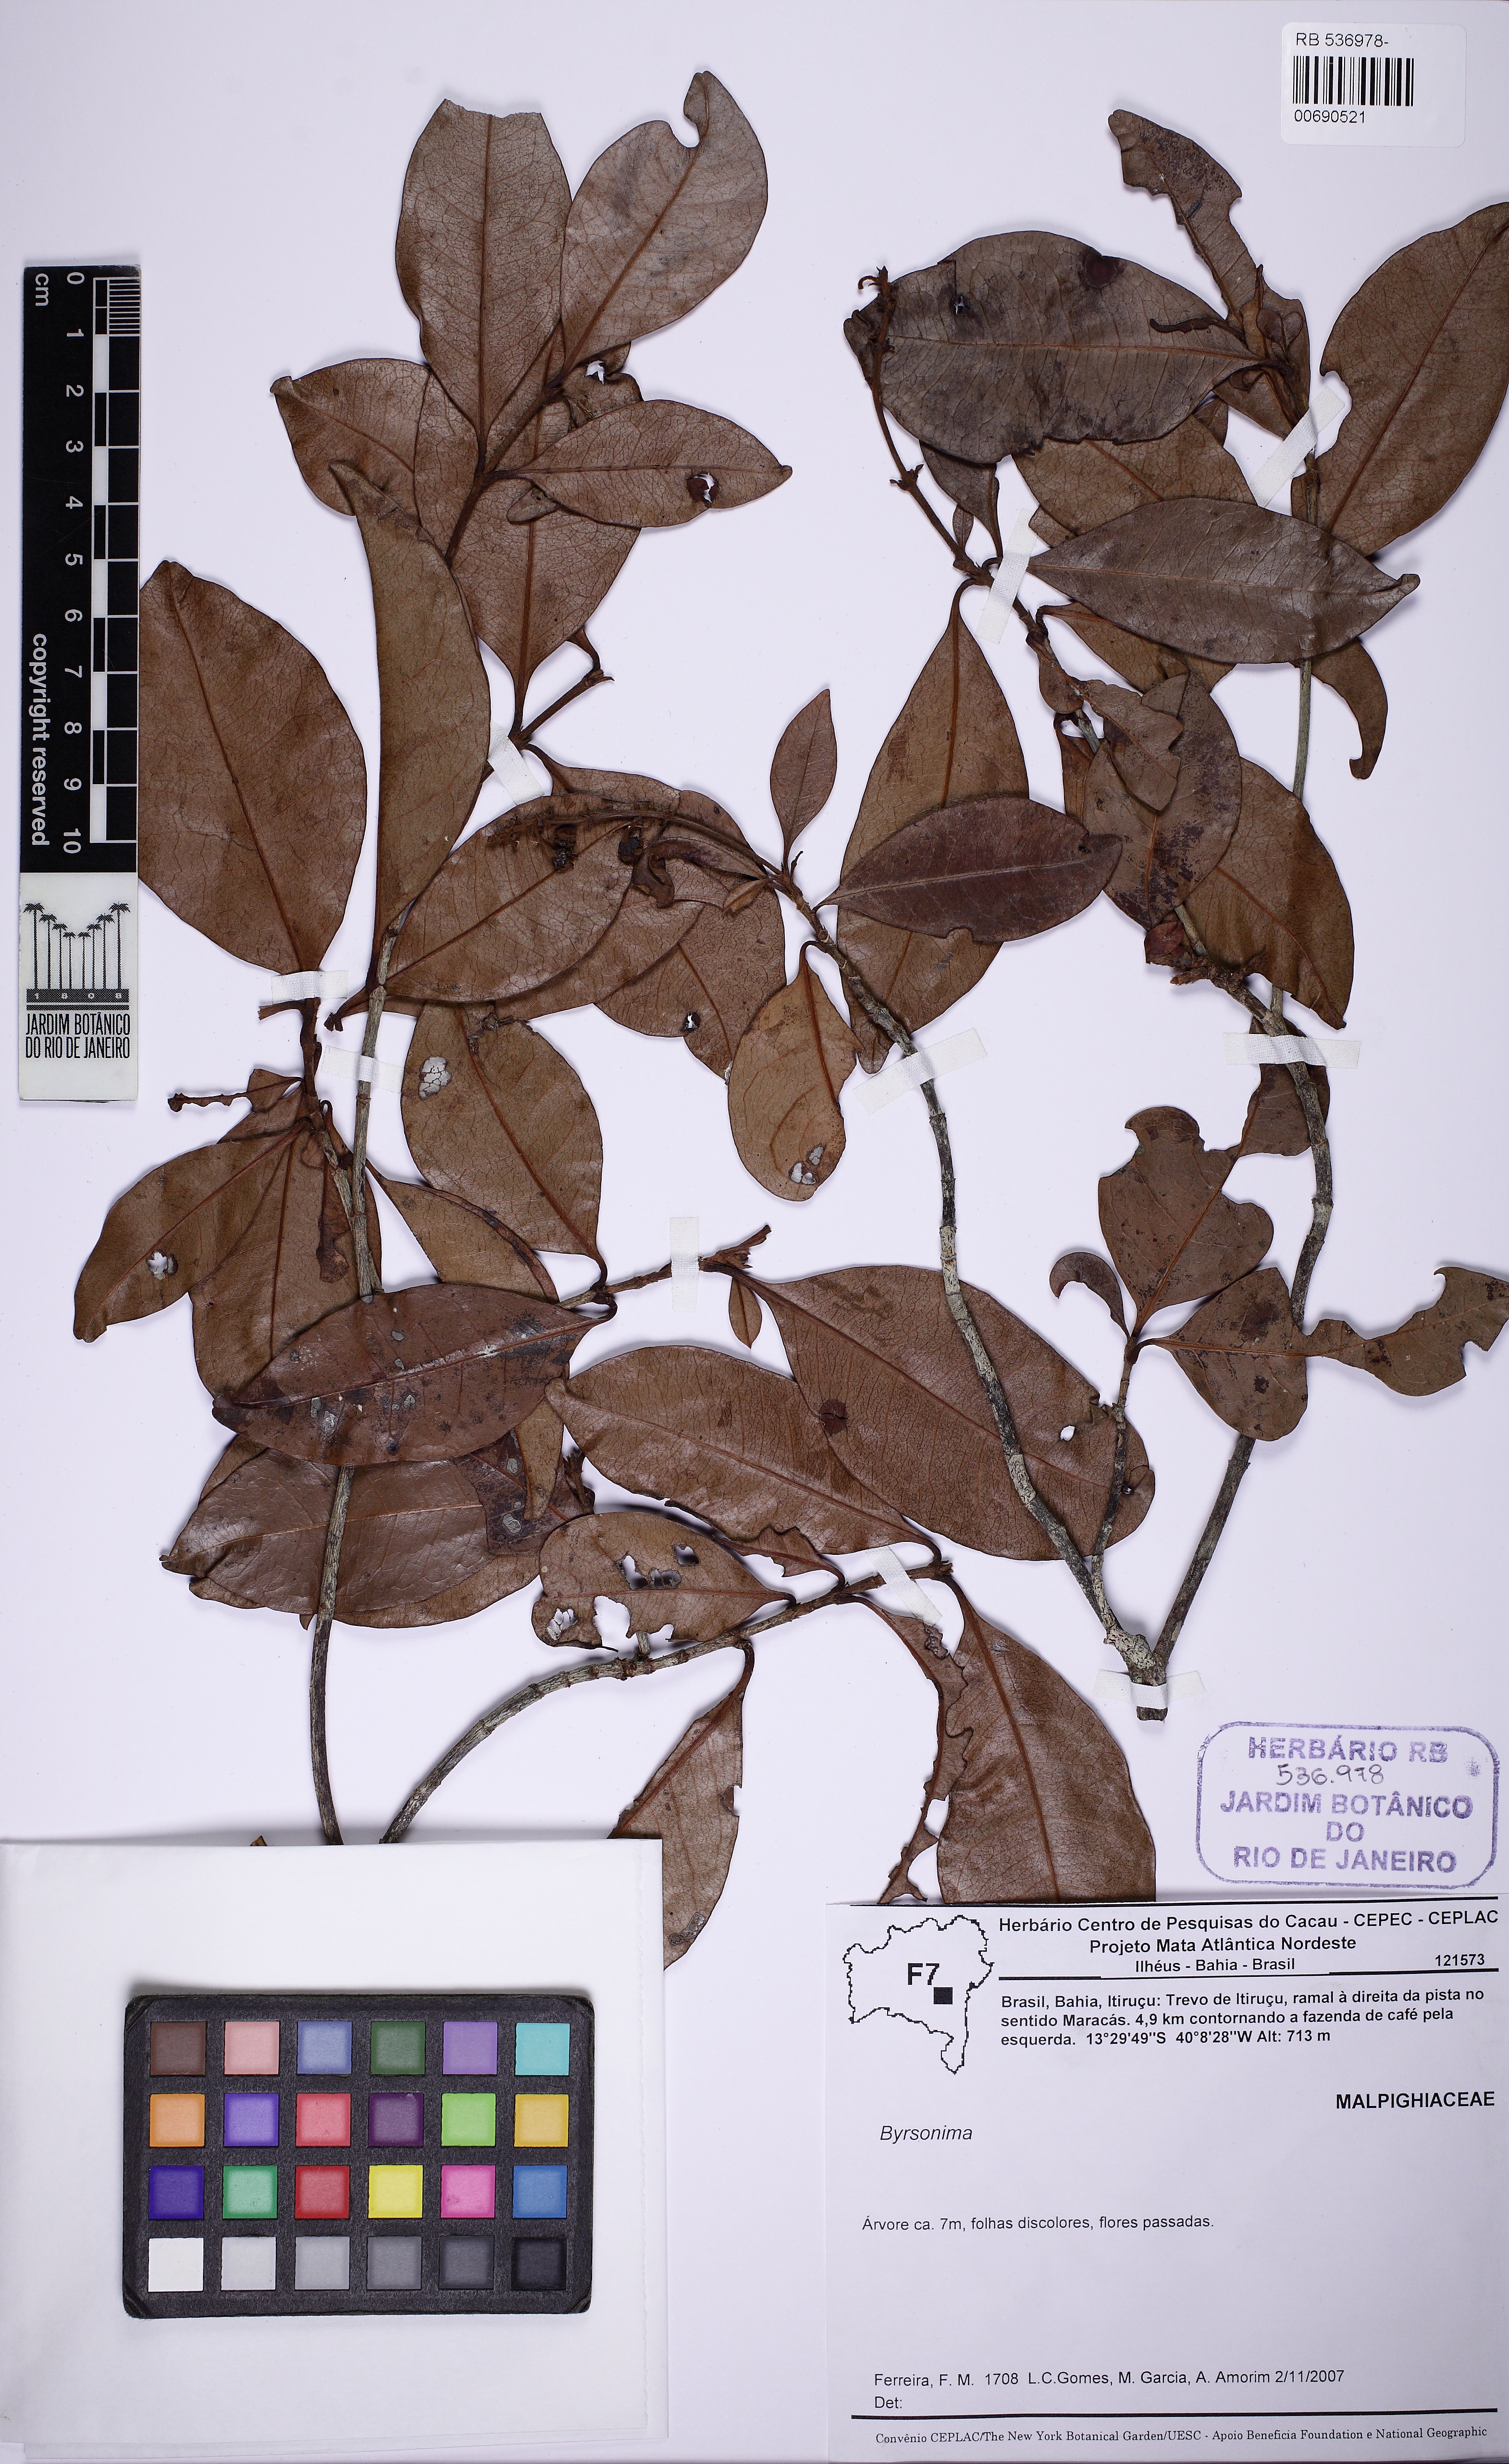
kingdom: Plantae
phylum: Tracheophyta
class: Magnoliopsida
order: Malpighiales
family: Malpighiaceae
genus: Byrsonima
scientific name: Byrsonima gardneriana
